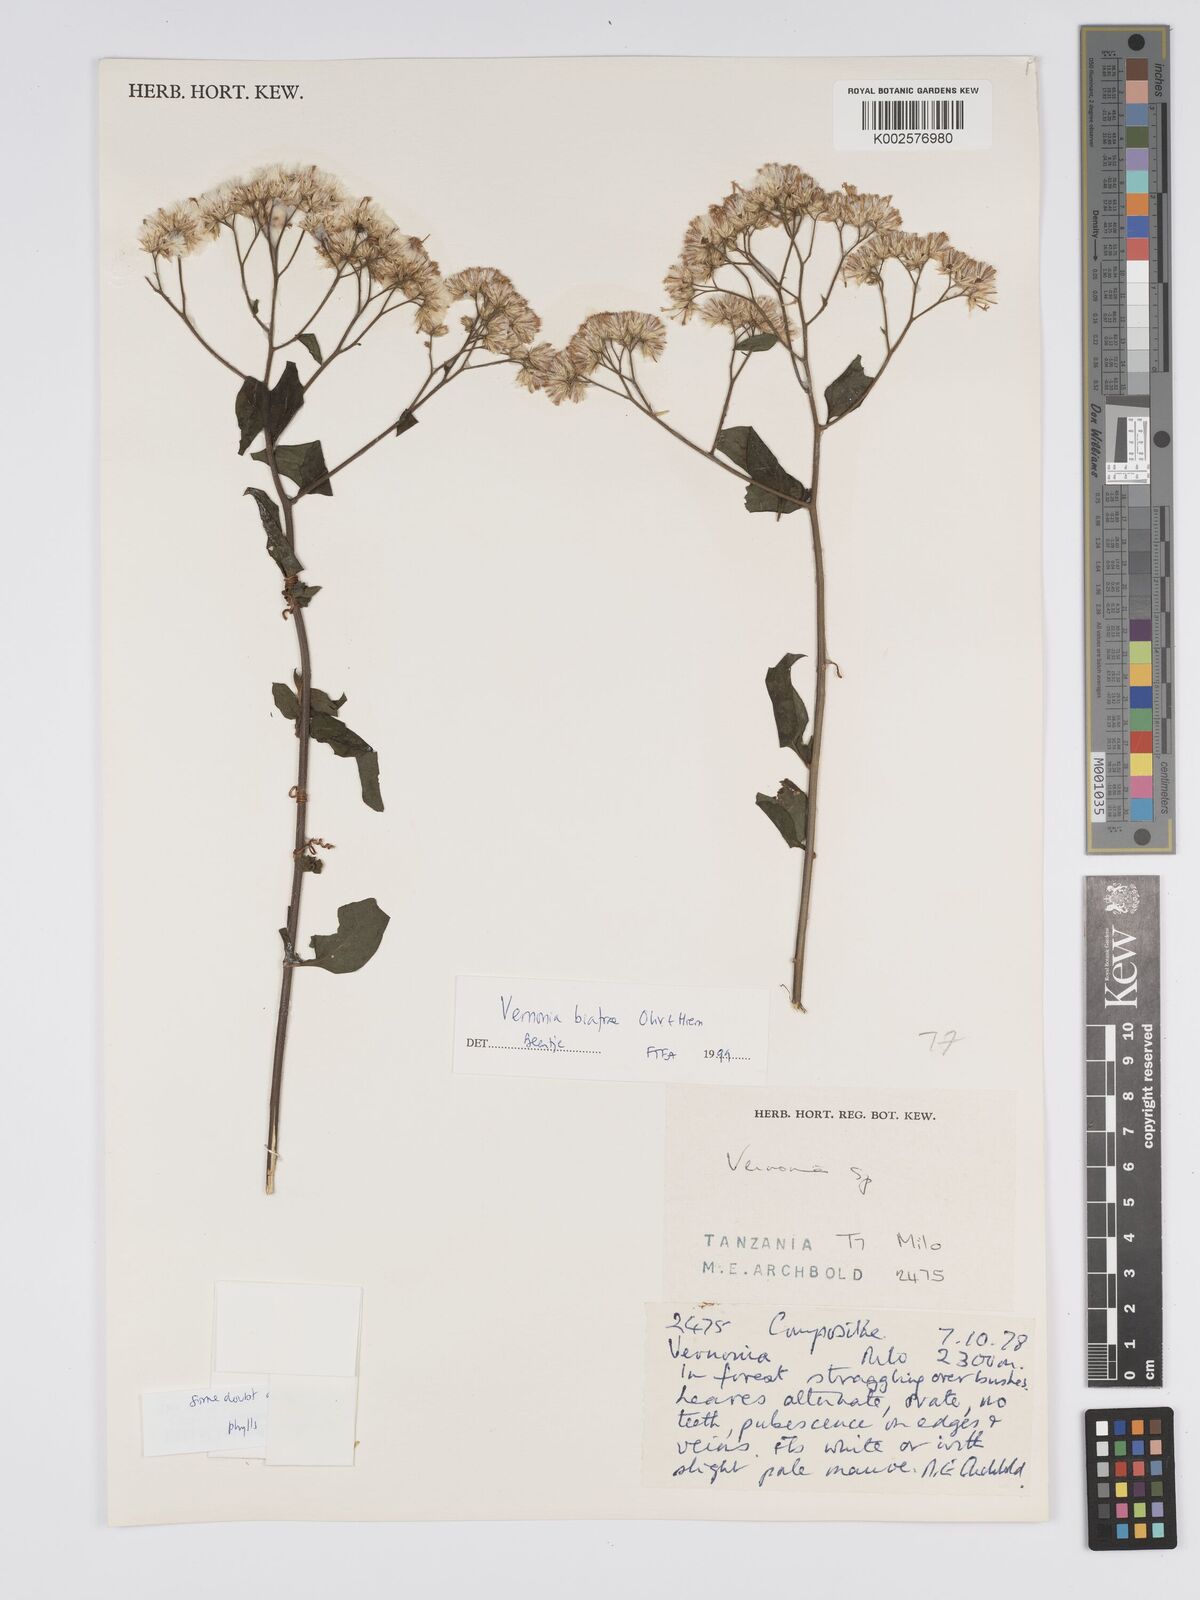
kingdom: Plantae
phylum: Tracheophyta
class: Magnoliopsida
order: Asterales
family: Asteraceae
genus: Distephanus
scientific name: Distephanus biafrae
